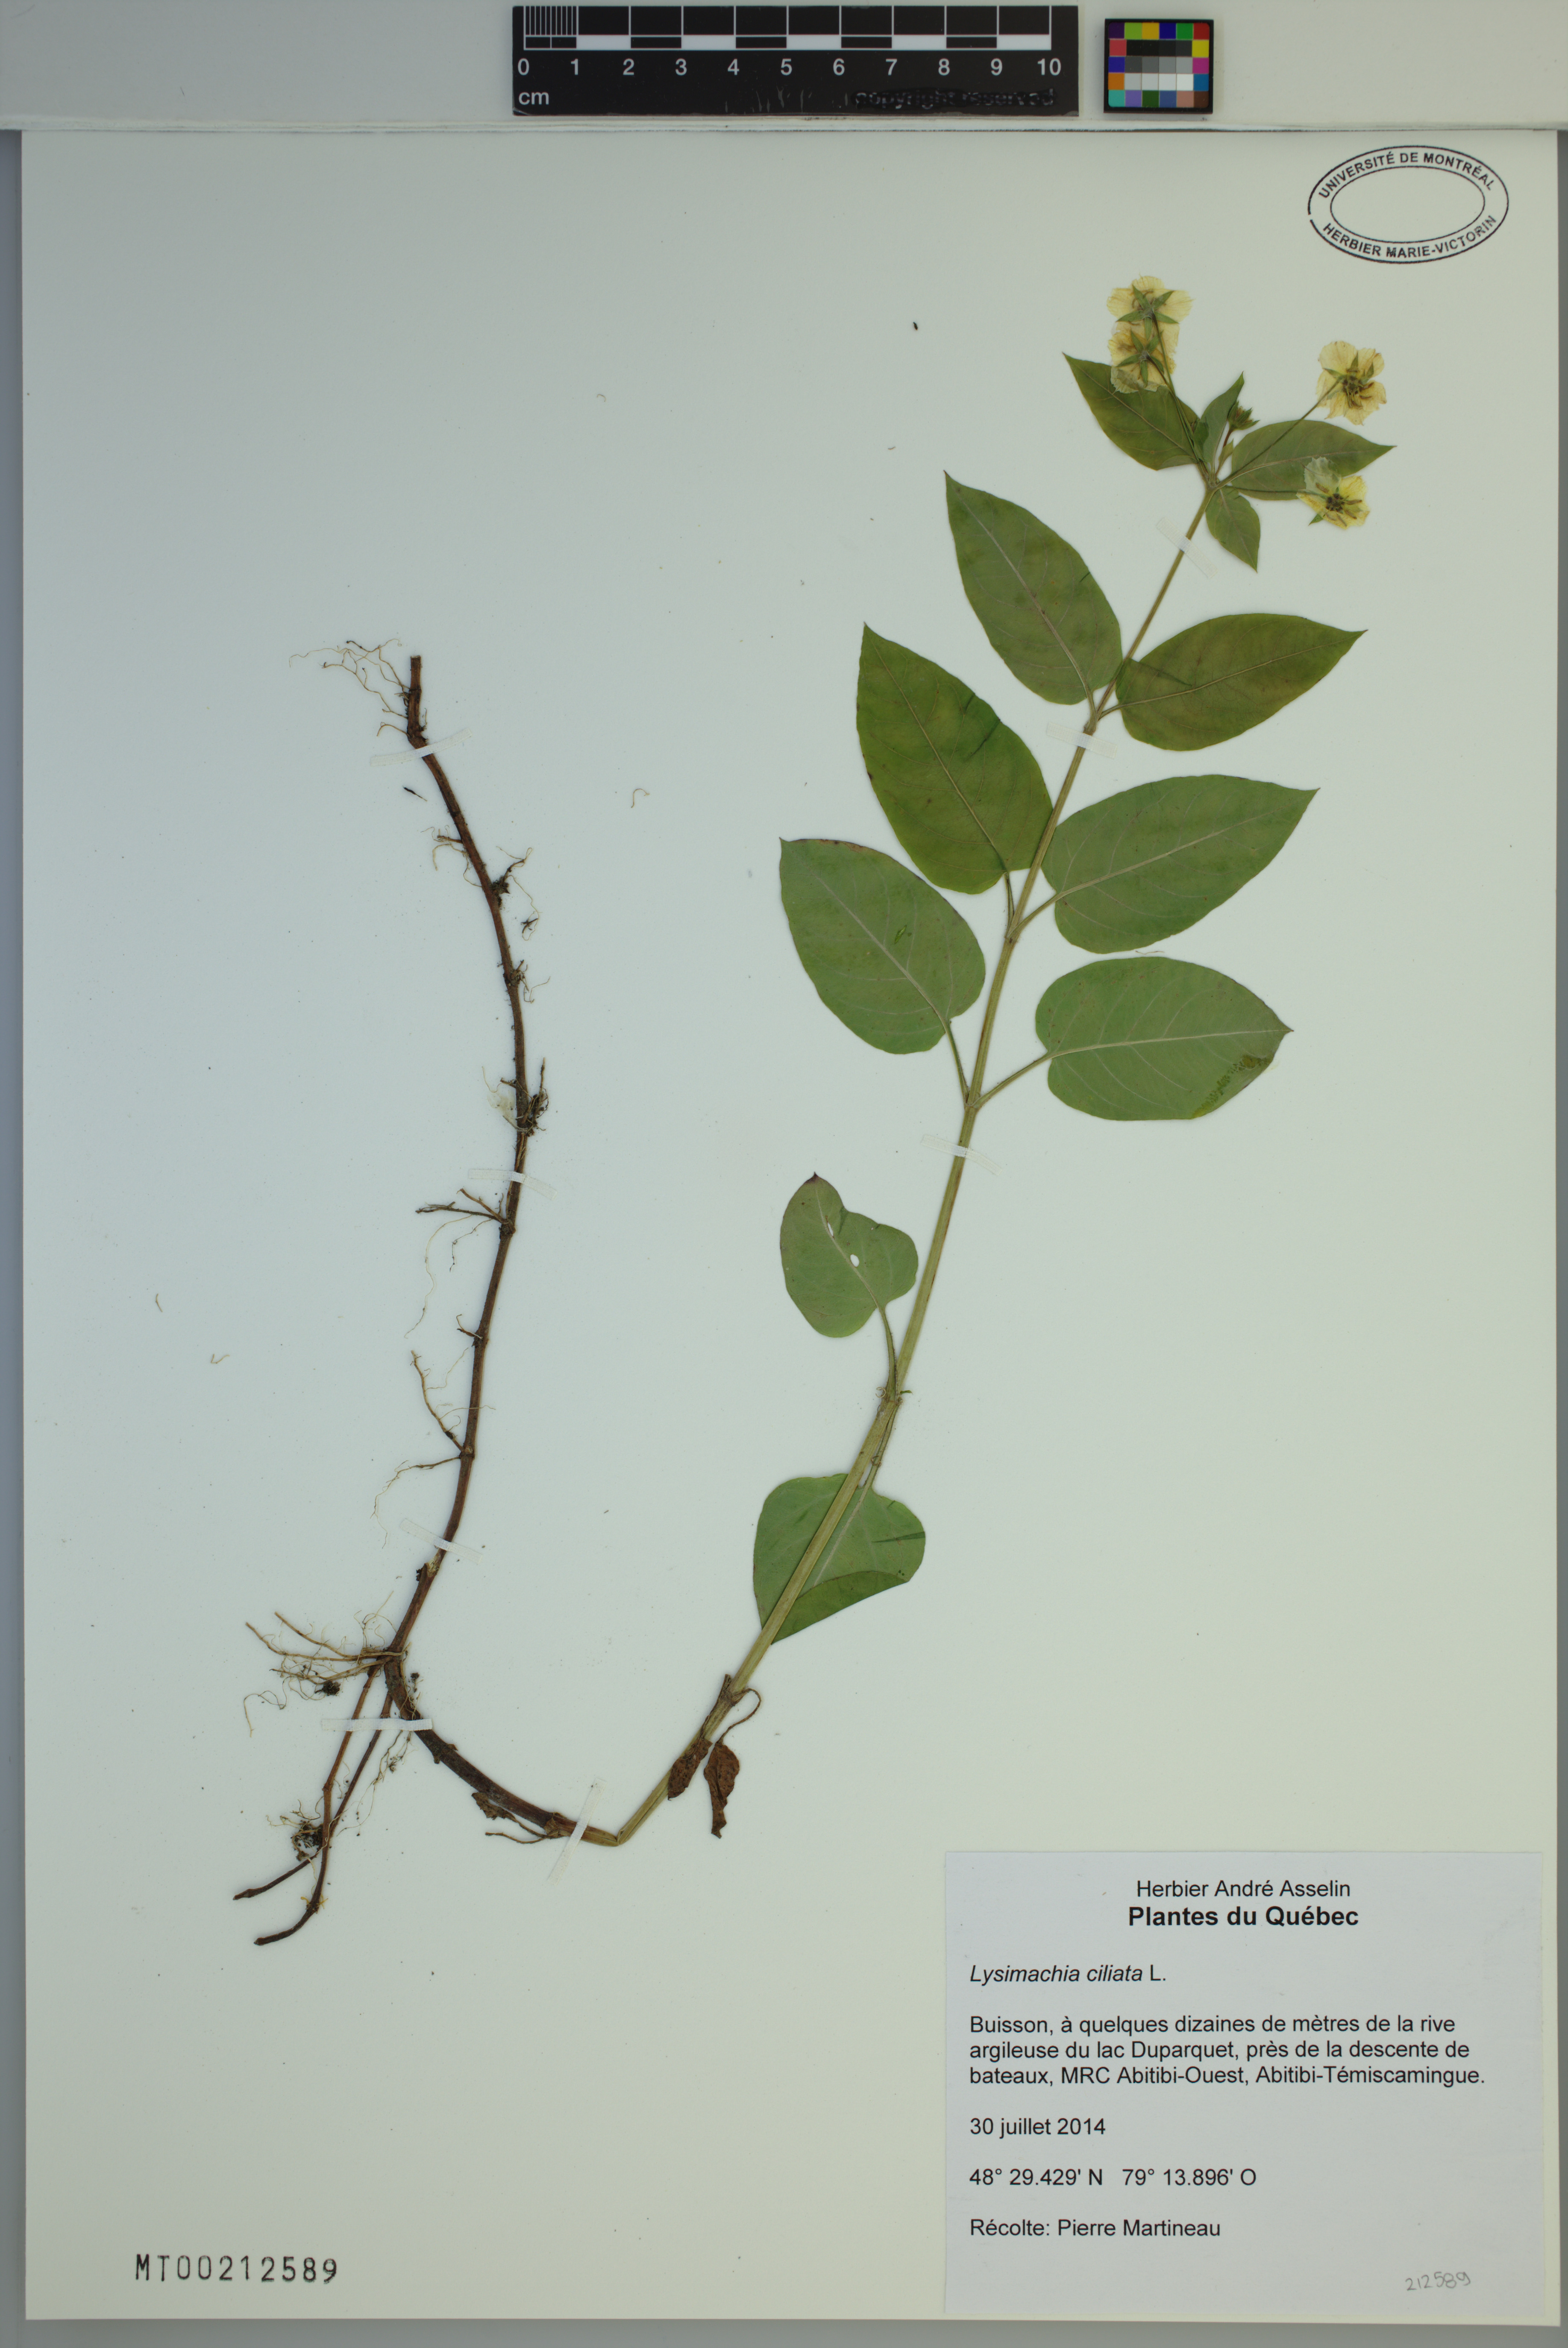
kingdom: Plantae
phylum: Tracheophyta
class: Magnoliopsida
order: Ericales
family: Primulaceae
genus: Lysimachia
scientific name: Lysimachia ciliata
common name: Fringed loosestrife
